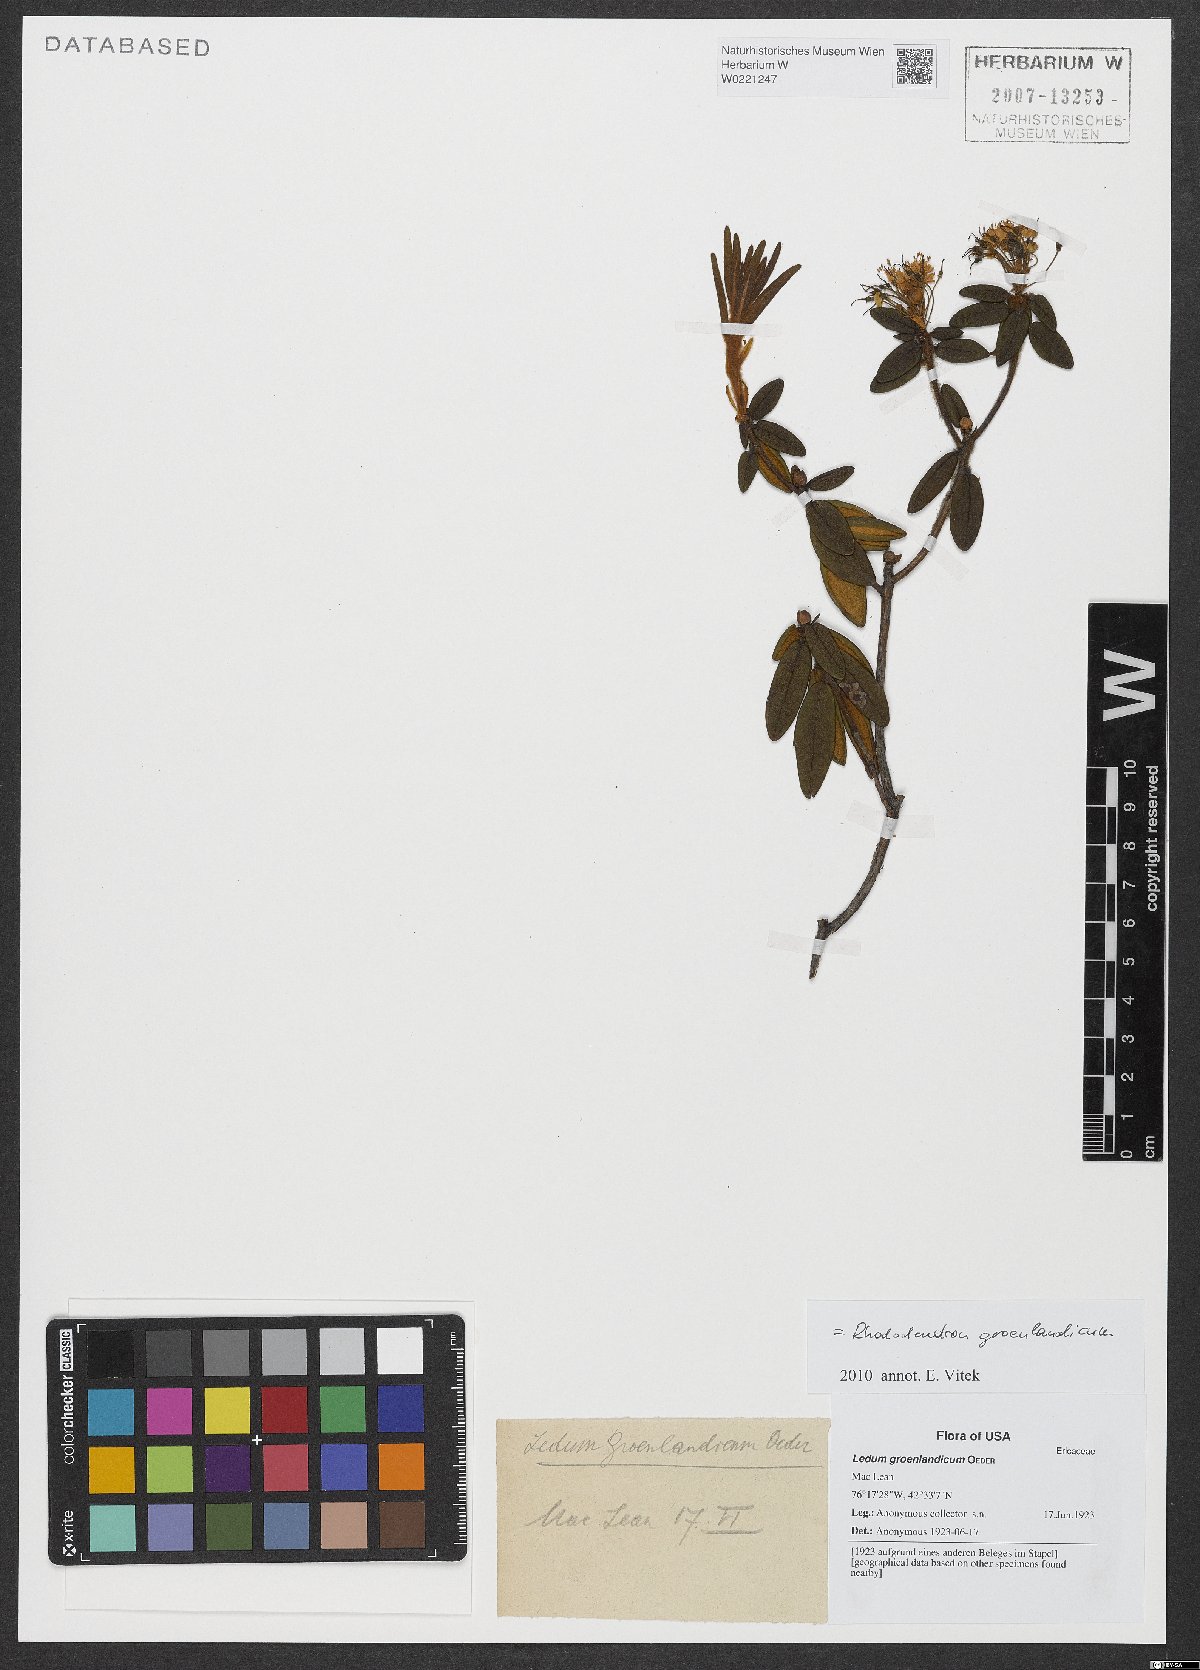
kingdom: Plantae
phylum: Tracheophyta
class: Magnoliopsida
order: Ericales
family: Ericaceae
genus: Rhododendron
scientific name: Rhododendron groenlandicum
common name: Bog labrador tea
